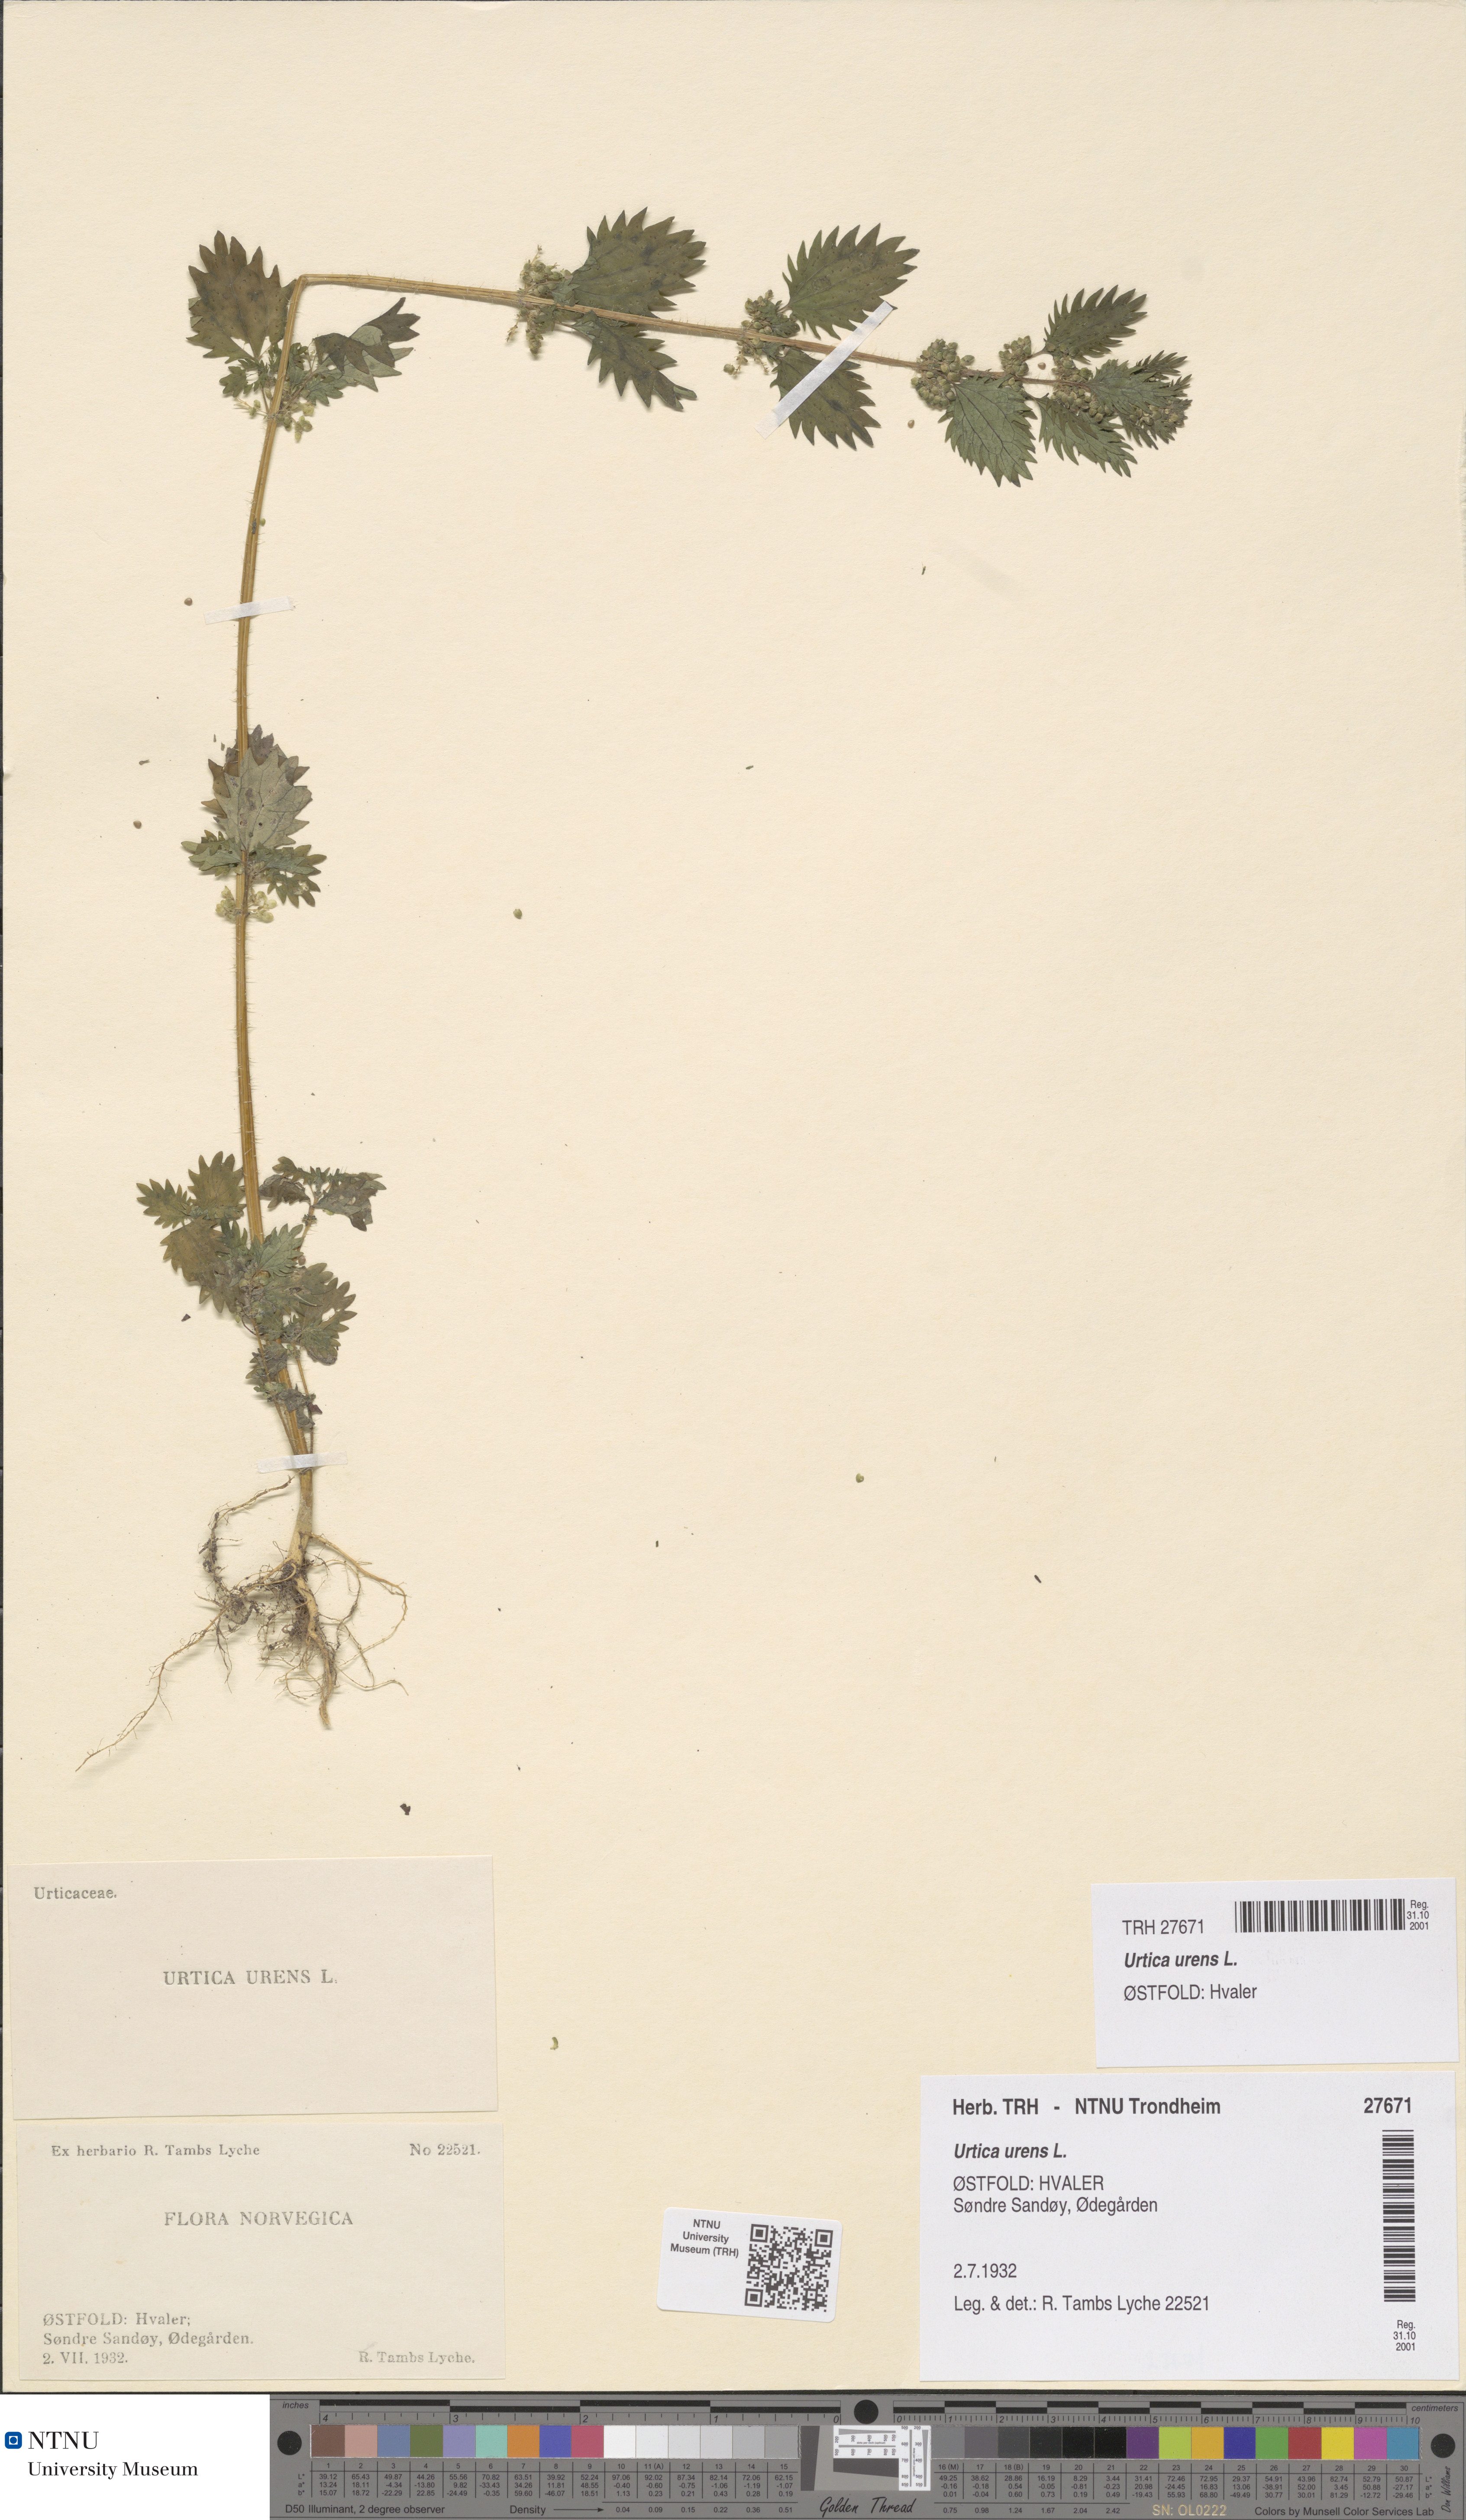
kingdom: Plantae
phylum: Tracheophyta
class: Magnoliopsida
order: Rosales
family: Urticaceae
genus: Urtica
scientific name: Urtica urens
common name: Dwarf nettle
